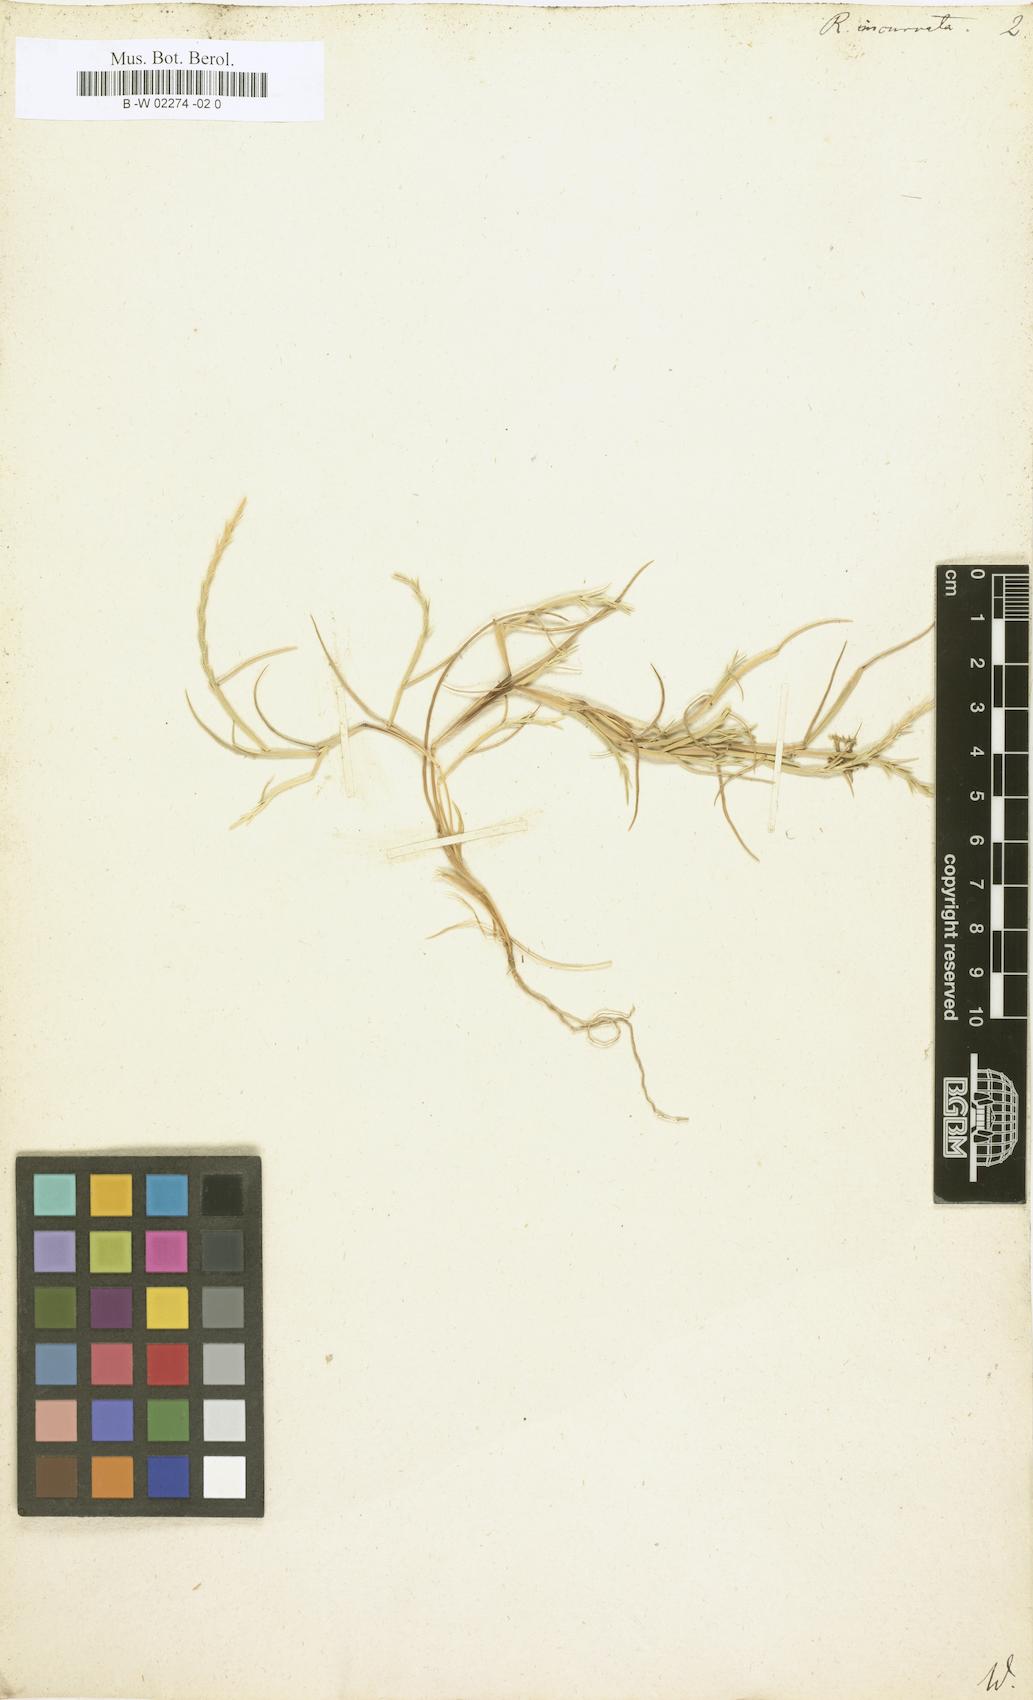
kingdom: Plantae
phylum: Tracheophyta
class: Liliopsida
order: Poales
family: Poaceae
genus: Rottboellia
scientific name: Rottboellia incurvata
